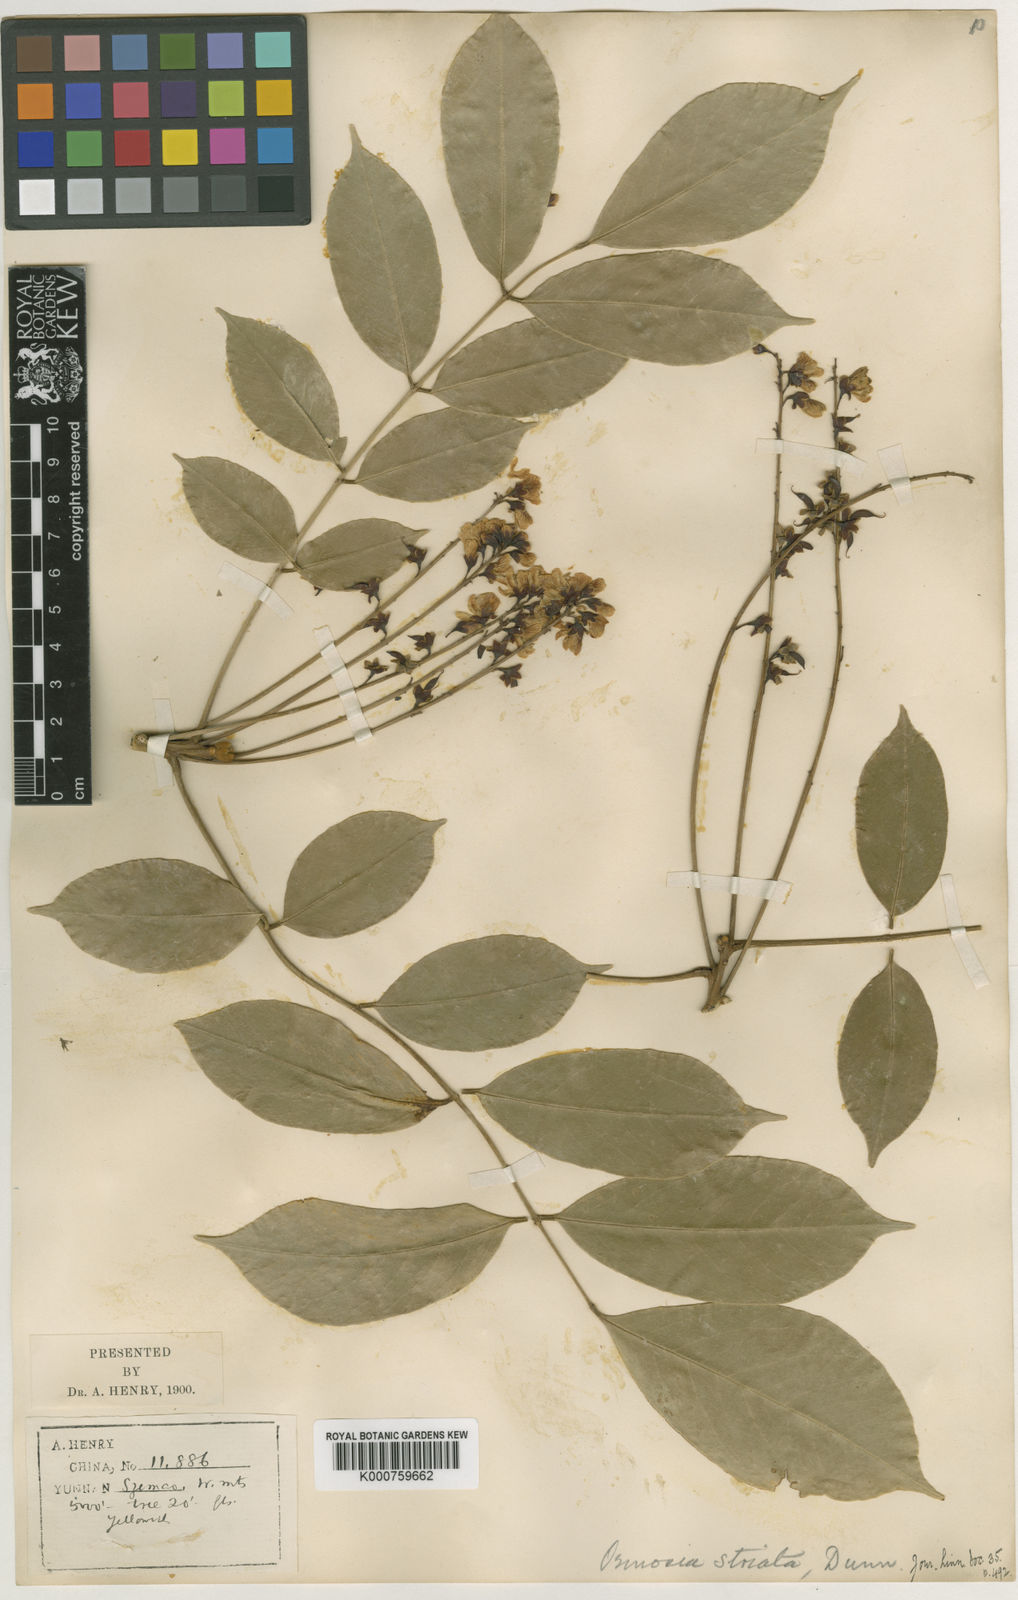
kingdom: Plantae
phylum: Tracheophyta
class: Magnoliopsida
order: Fabales
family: Fabaceae
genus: Ormosia
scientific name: Ormosia striata
